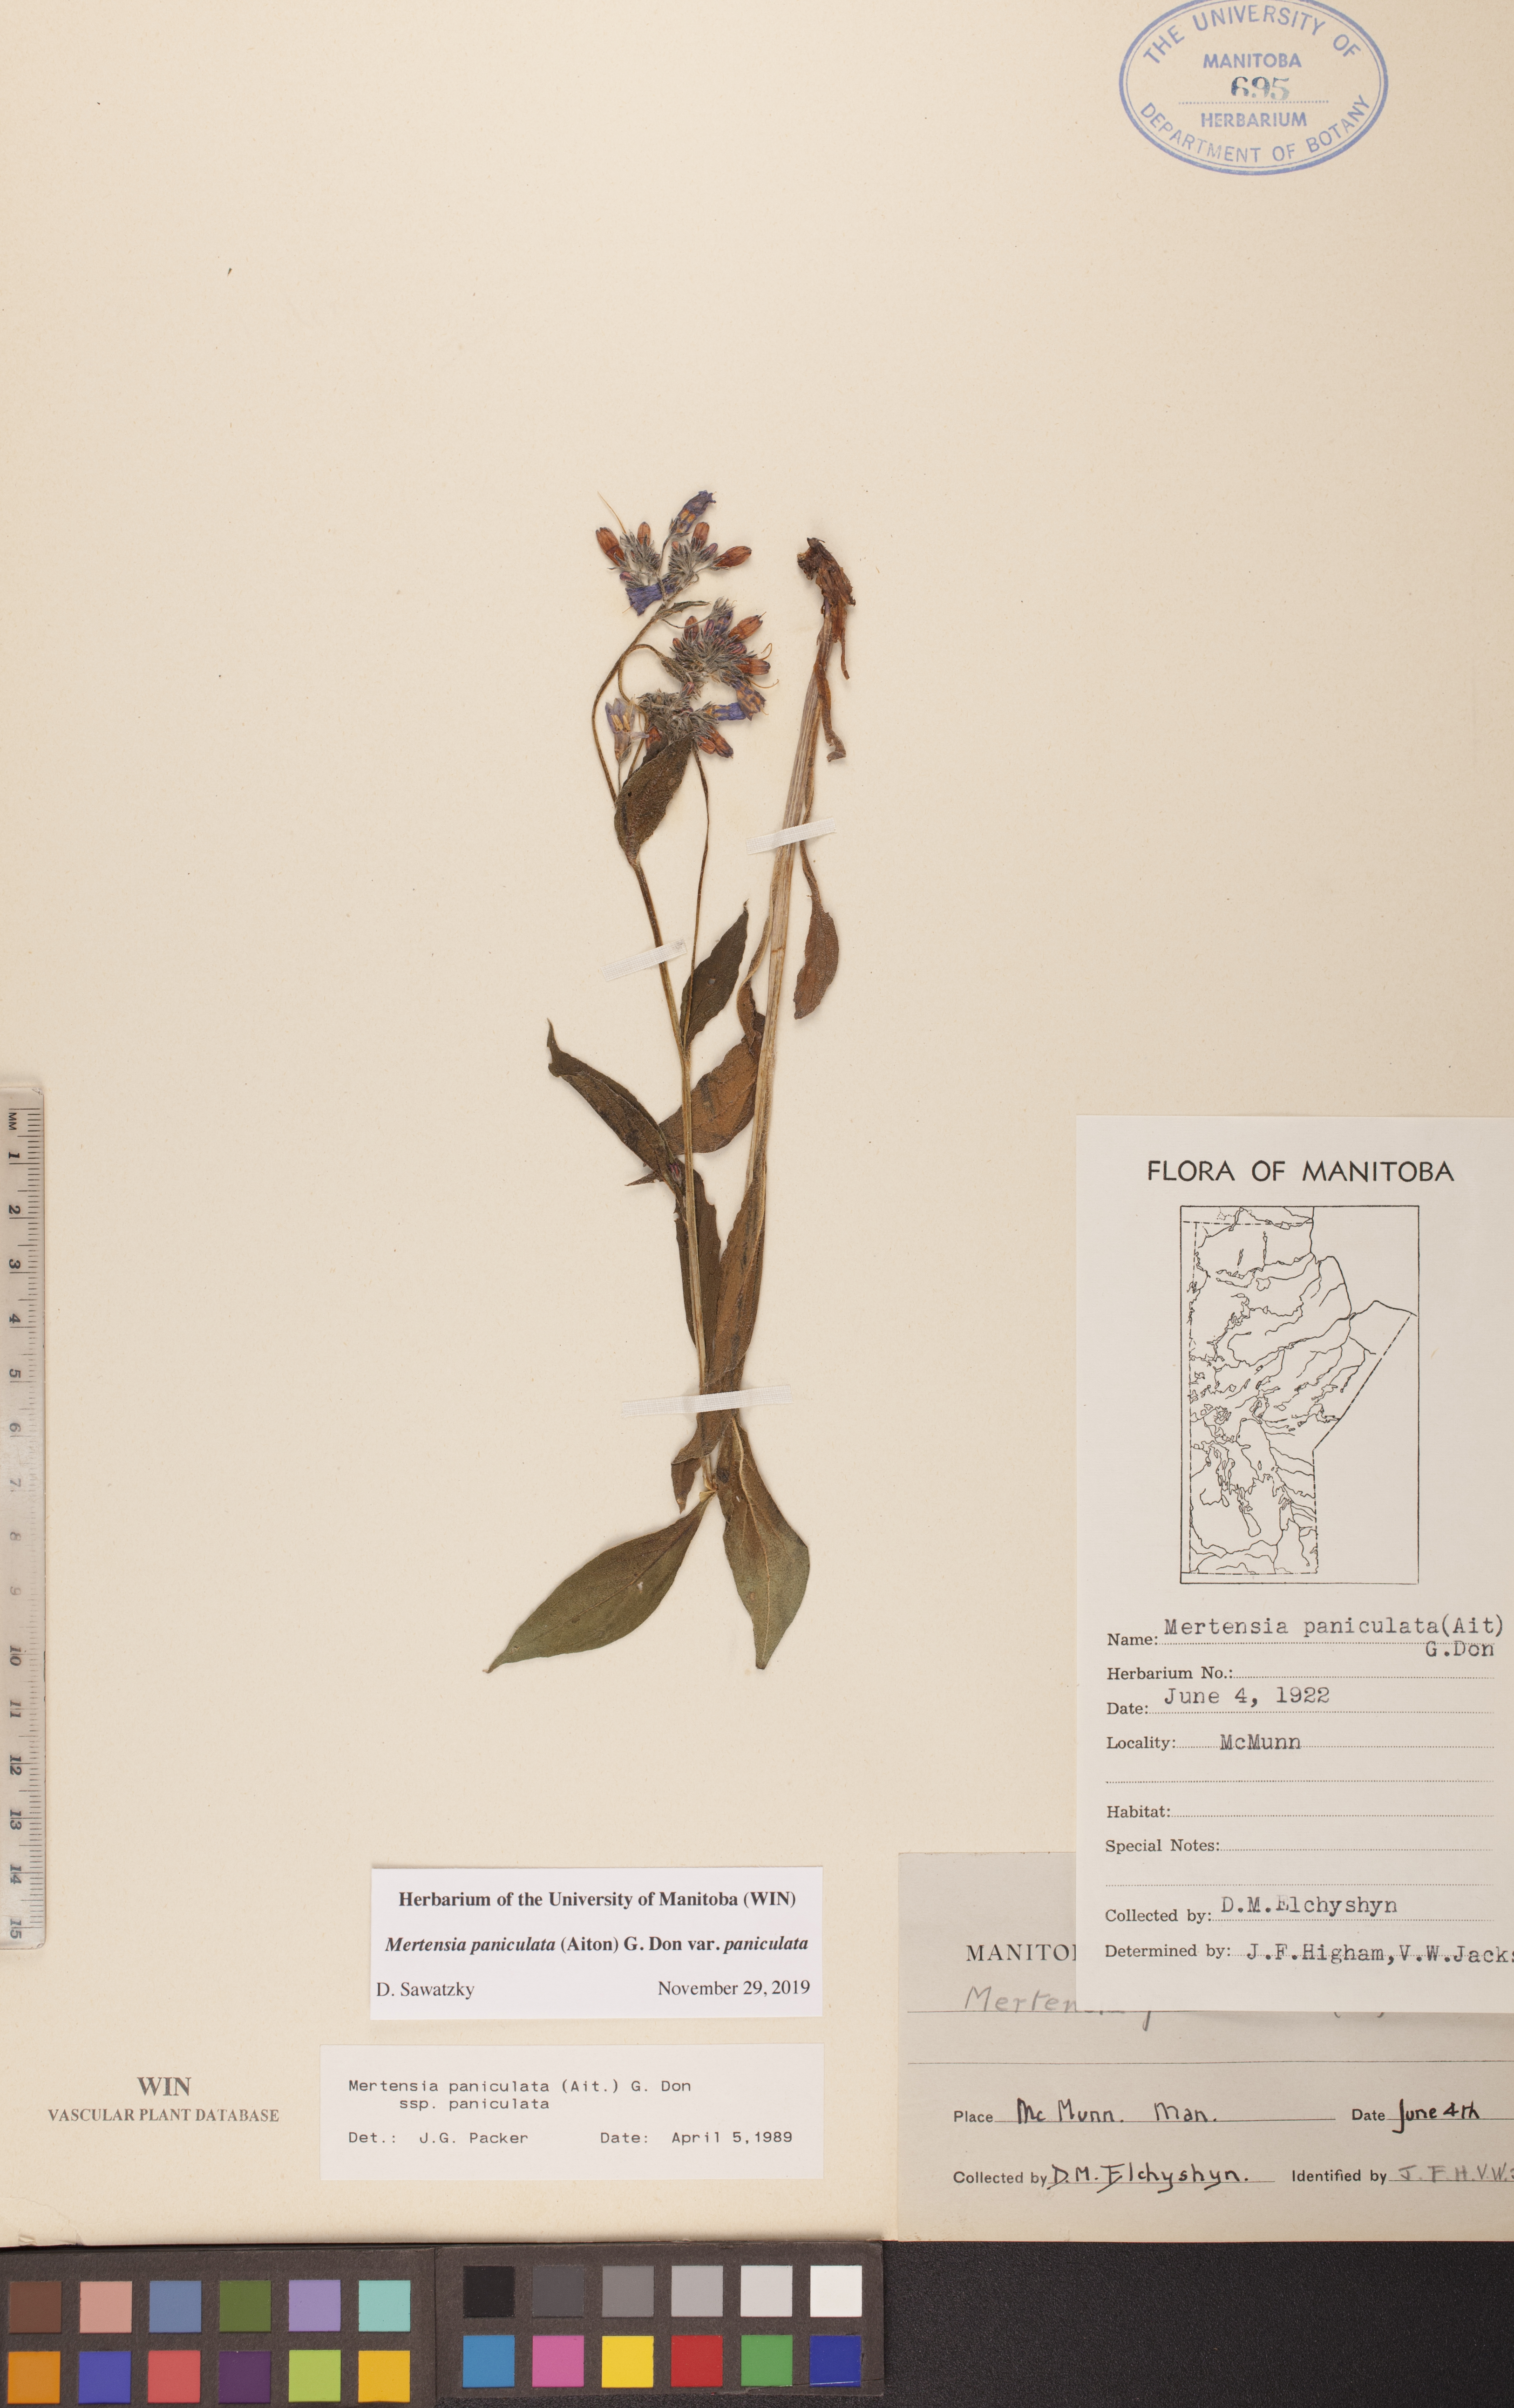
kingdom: Plantae
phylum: Tracheophyta
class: Magnoliopsida
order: Boraginales
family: Boraginaceae
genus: Mertensia
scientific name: Mertensia paniculata
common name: Panicled bluebells
